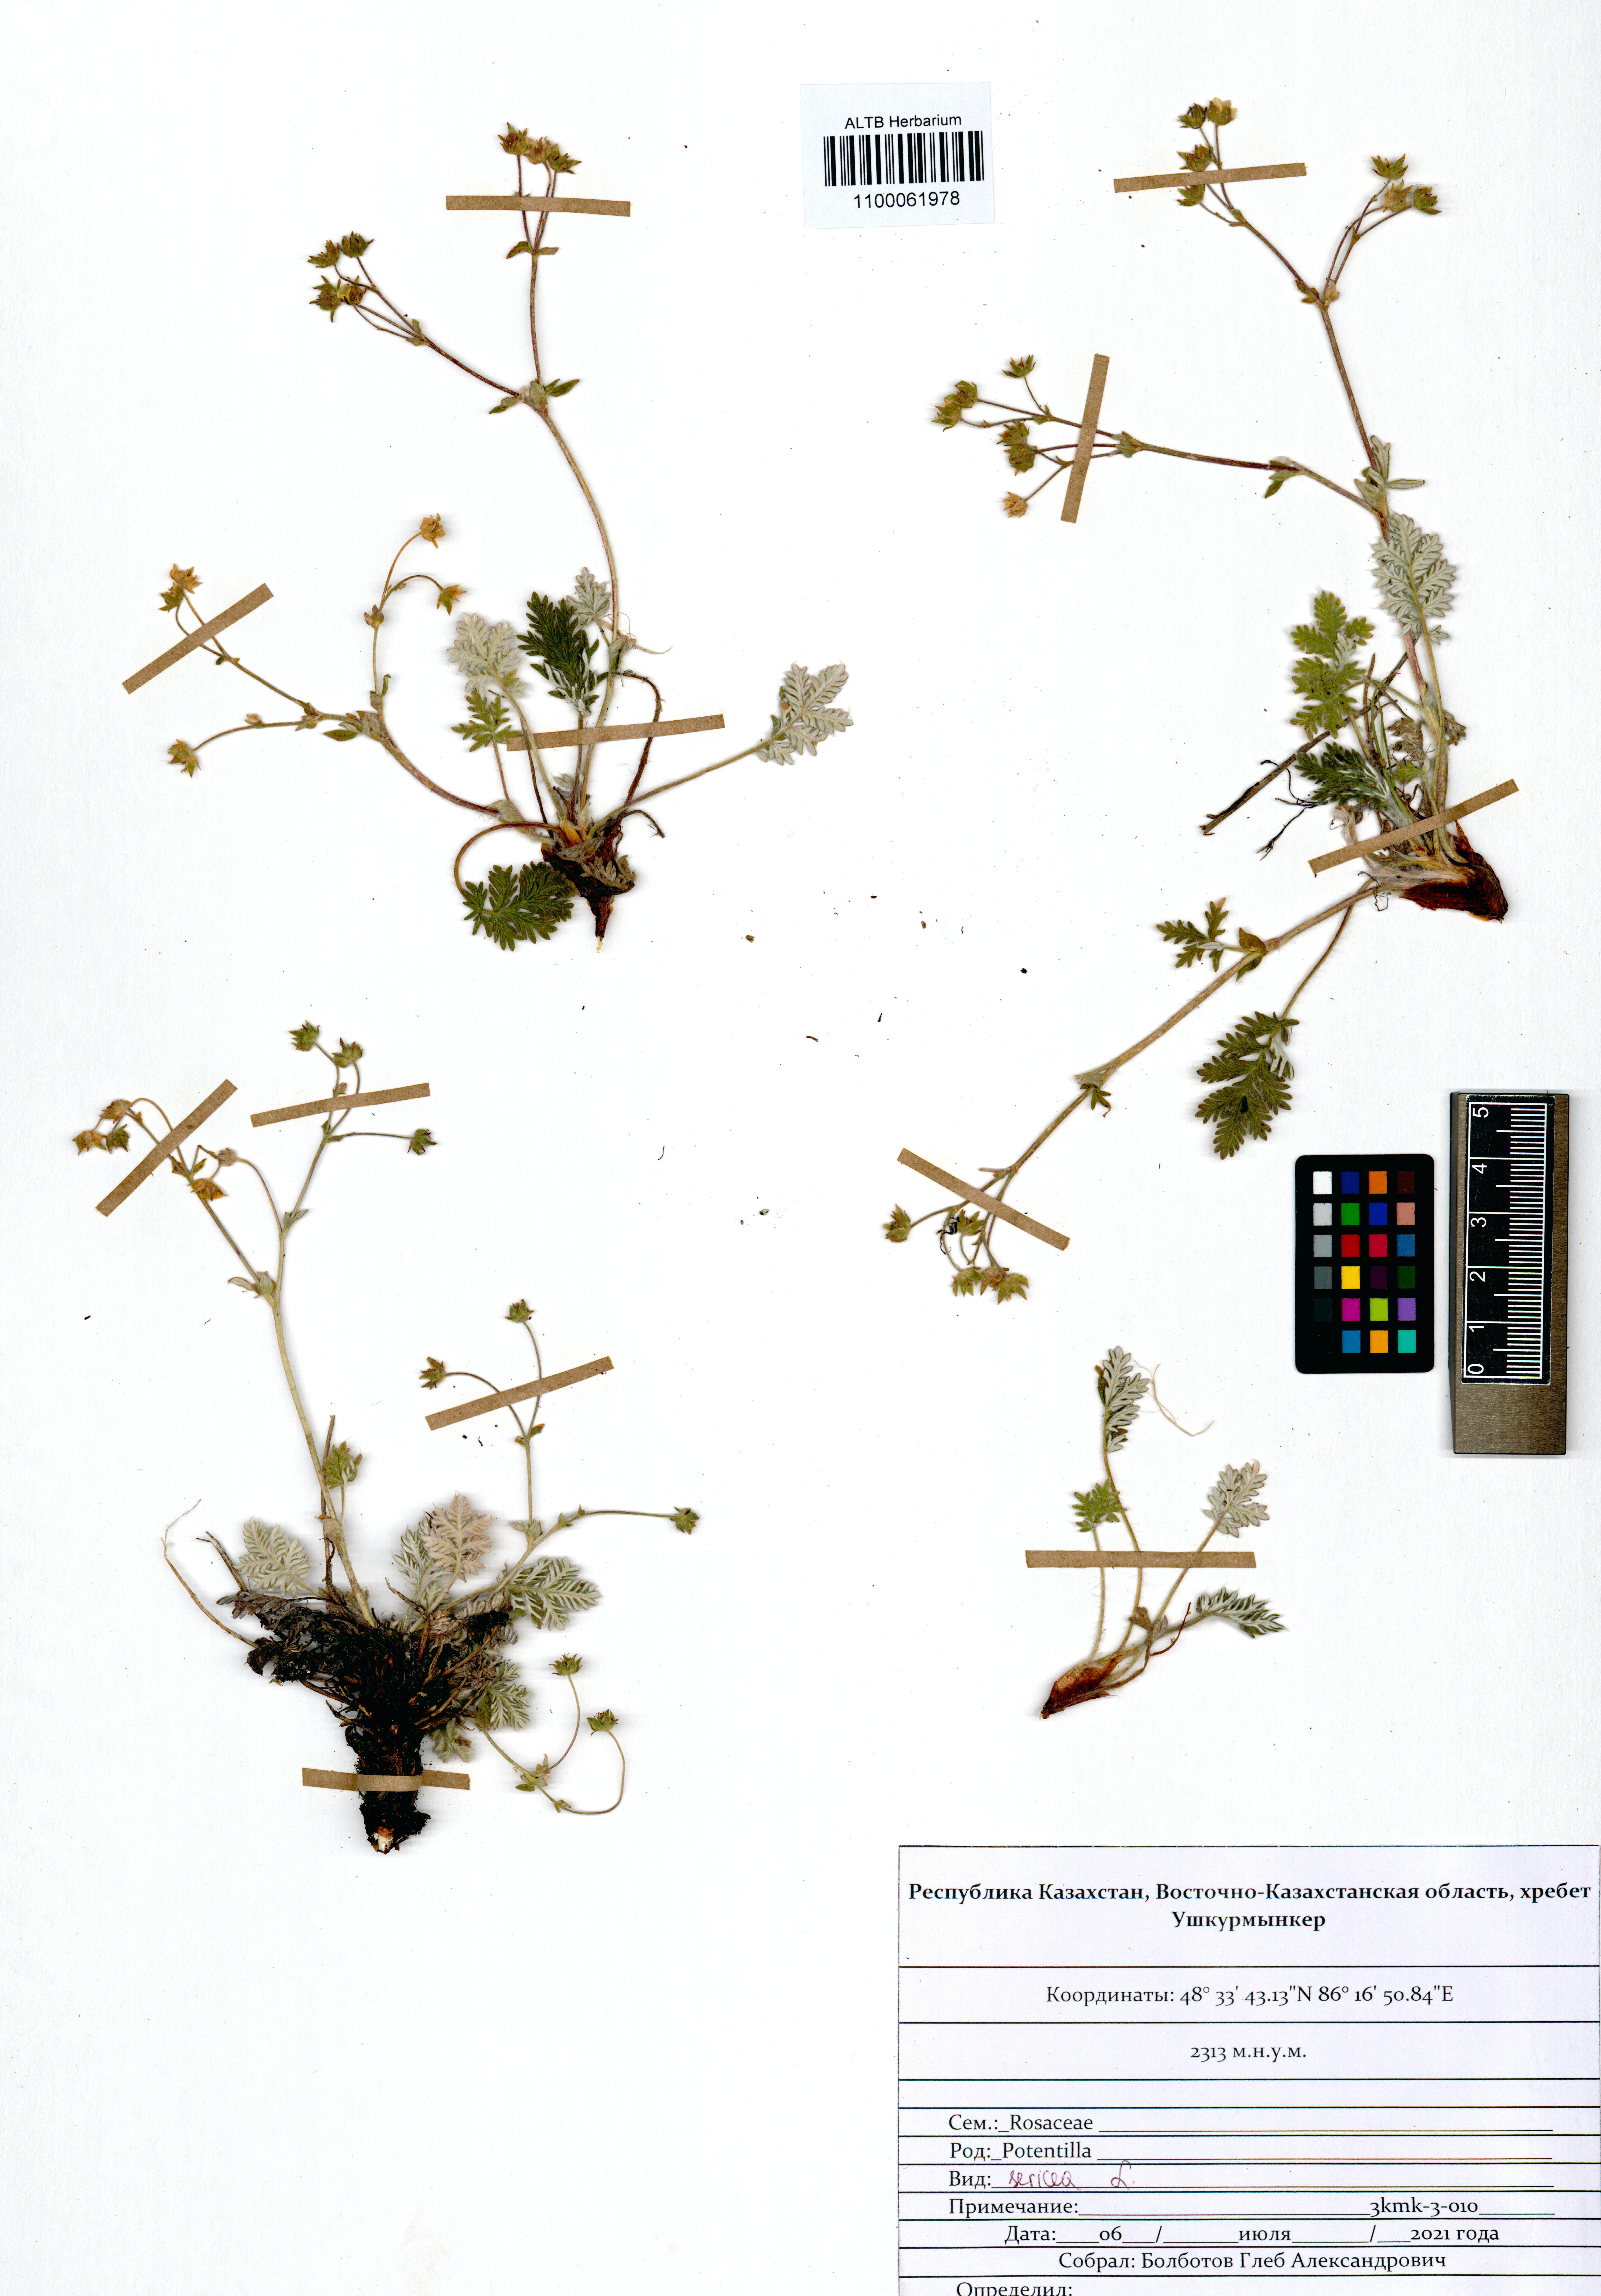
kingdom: Plantae
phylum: Tracheophyta
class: Magnoliopsida
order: Rosales
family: Rosaceae
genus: Potentilla
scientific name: Potentilla sericea
